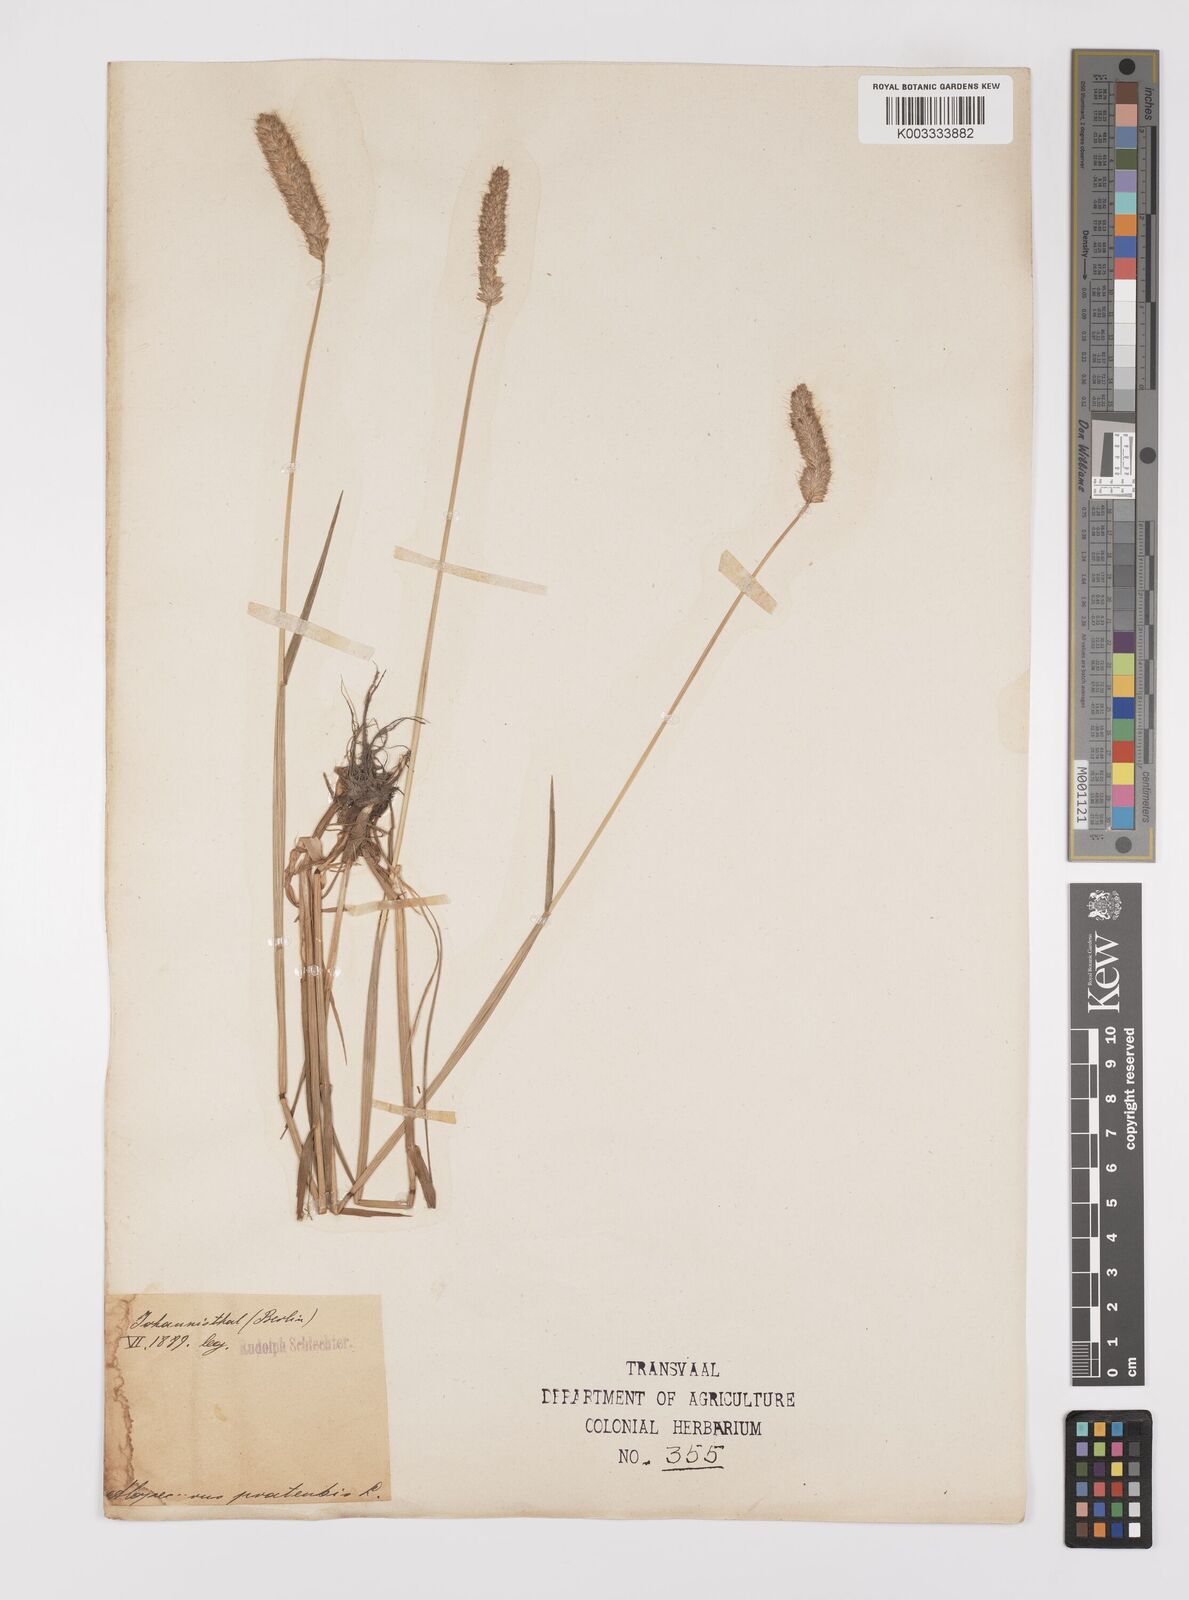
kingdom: Plantae
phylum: Tracheophyta
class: Liliopsida
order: Poales
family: Poaceae
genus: Alopecurus
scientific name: Alopecurus pratensis
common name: Meadow foxtail
